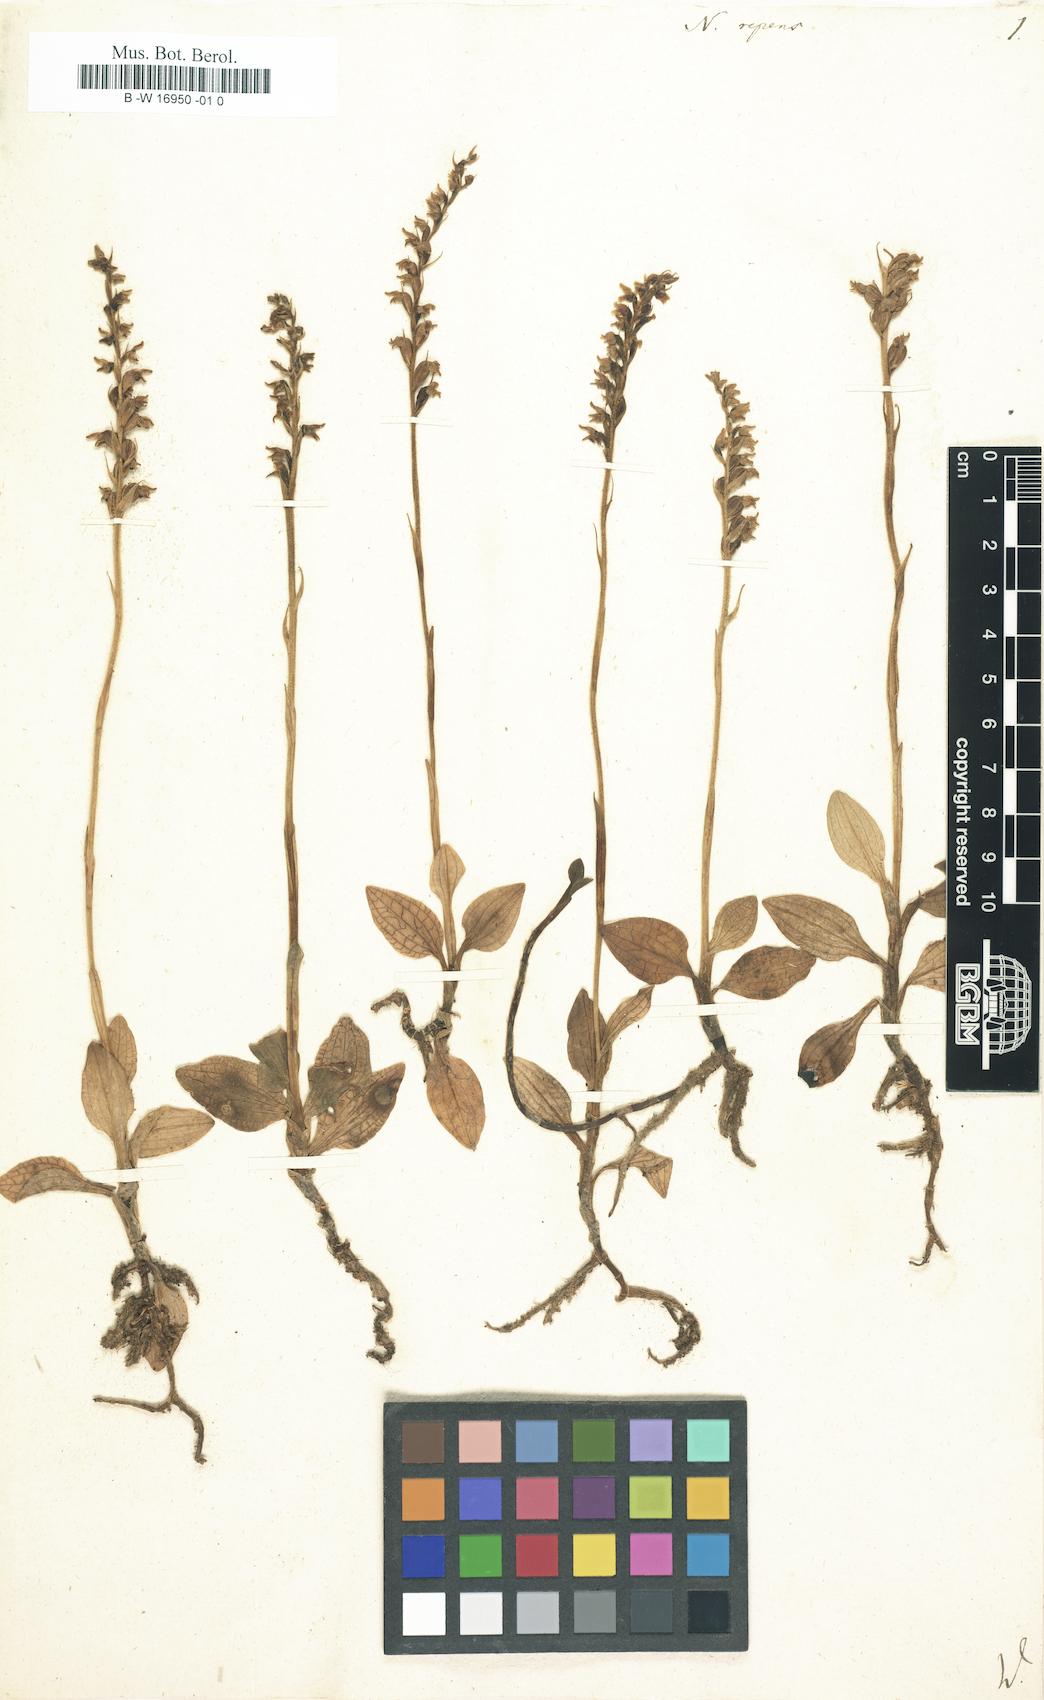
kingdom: Plantae
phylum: Tracheophyta
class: Liliopsida
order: Asparagales
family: Orchidaceae
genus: Goodyera
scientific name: Goodyera
